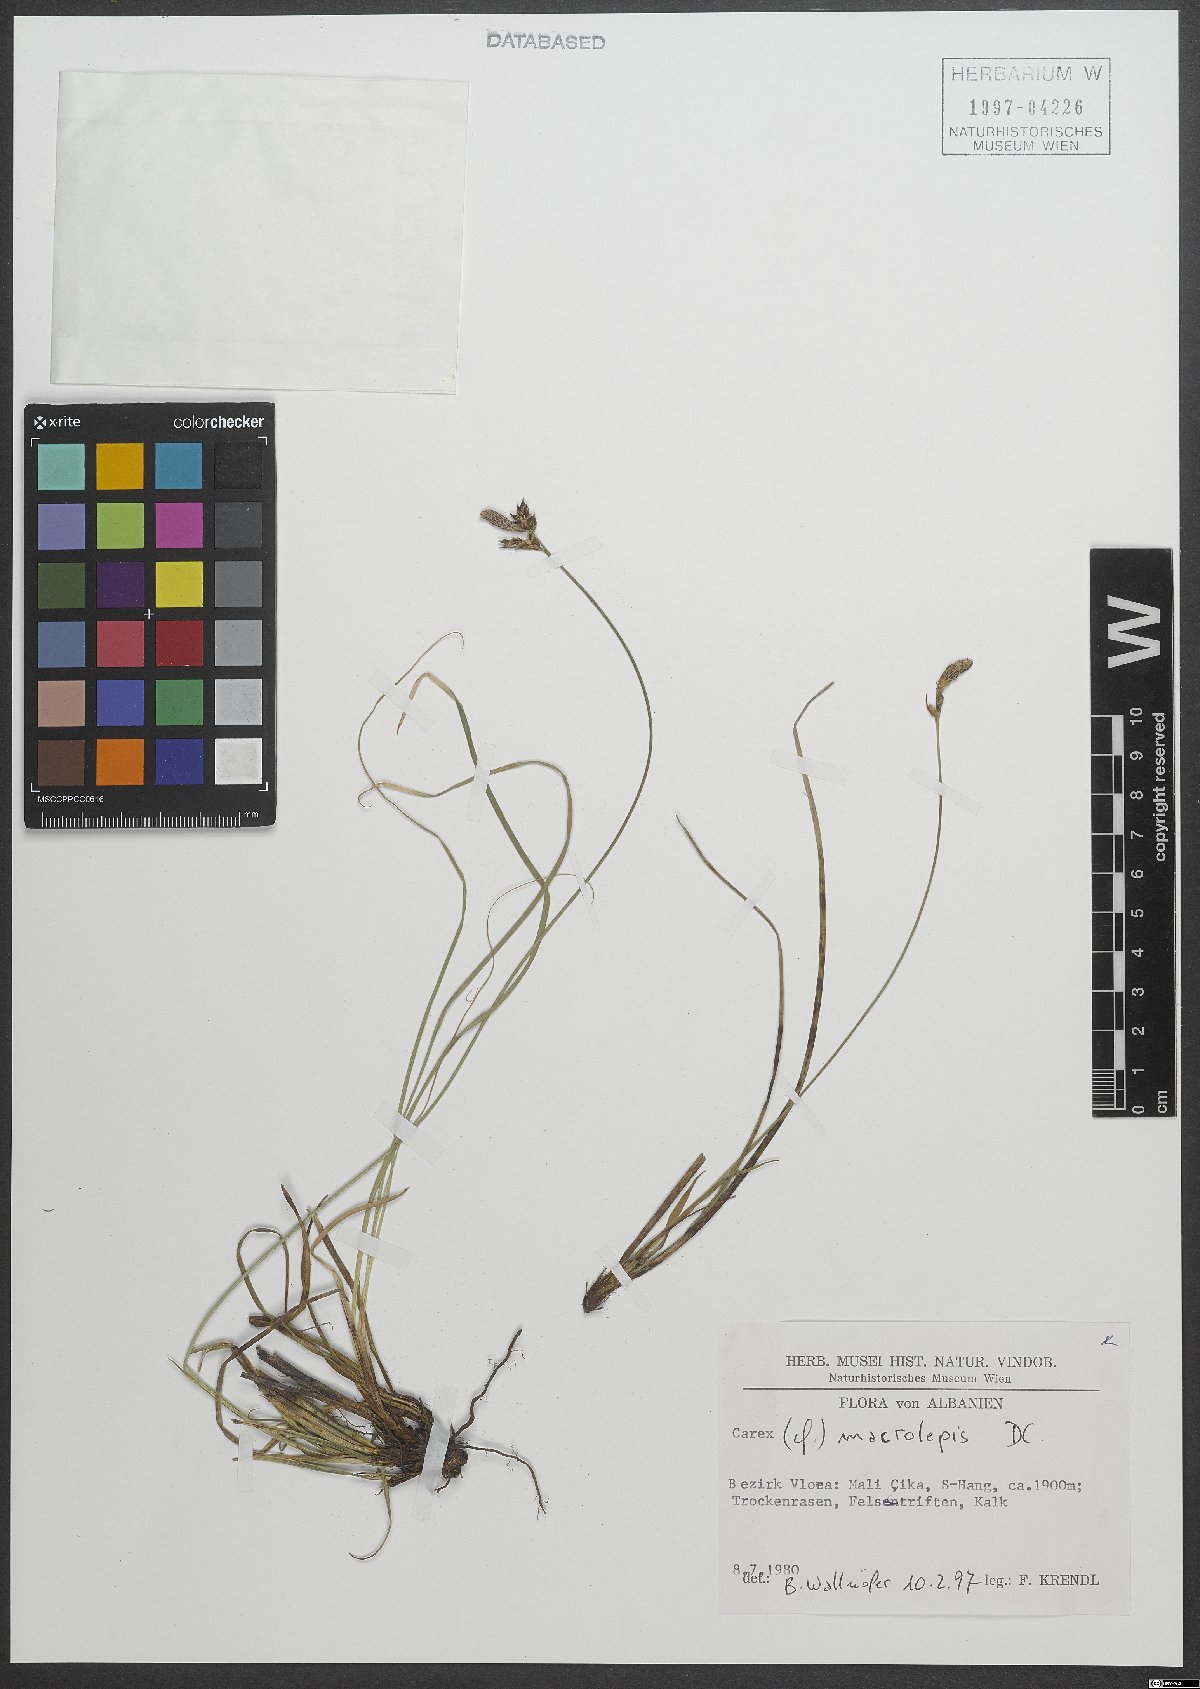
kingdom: Plantae
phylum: Tracheophyta
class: Liliopsida
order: Poales
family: Cyperaceae
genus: Carex
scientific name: Carex macrolepis
